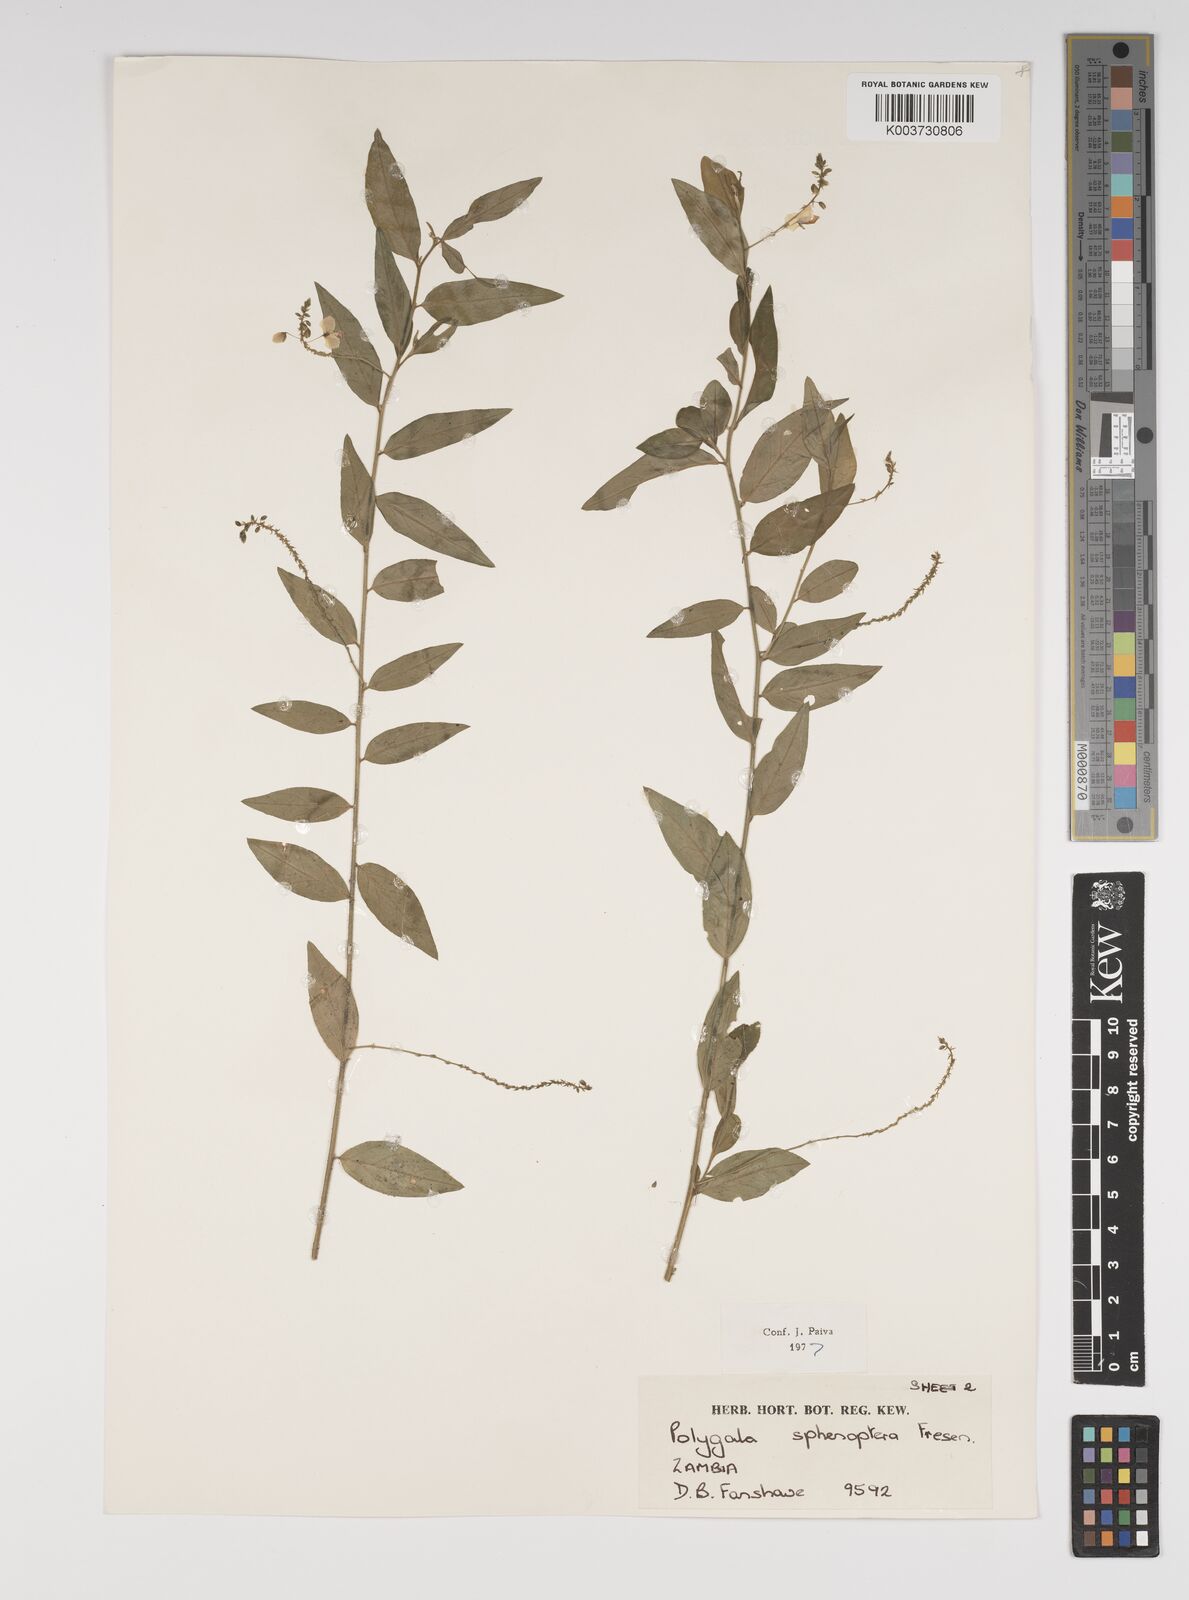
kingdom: Plantae
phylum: Tracheophyta
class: Magnoliopsida
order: Fabales
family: Polygalaceae
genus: Polygala
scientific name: Polygala sphenoptera
